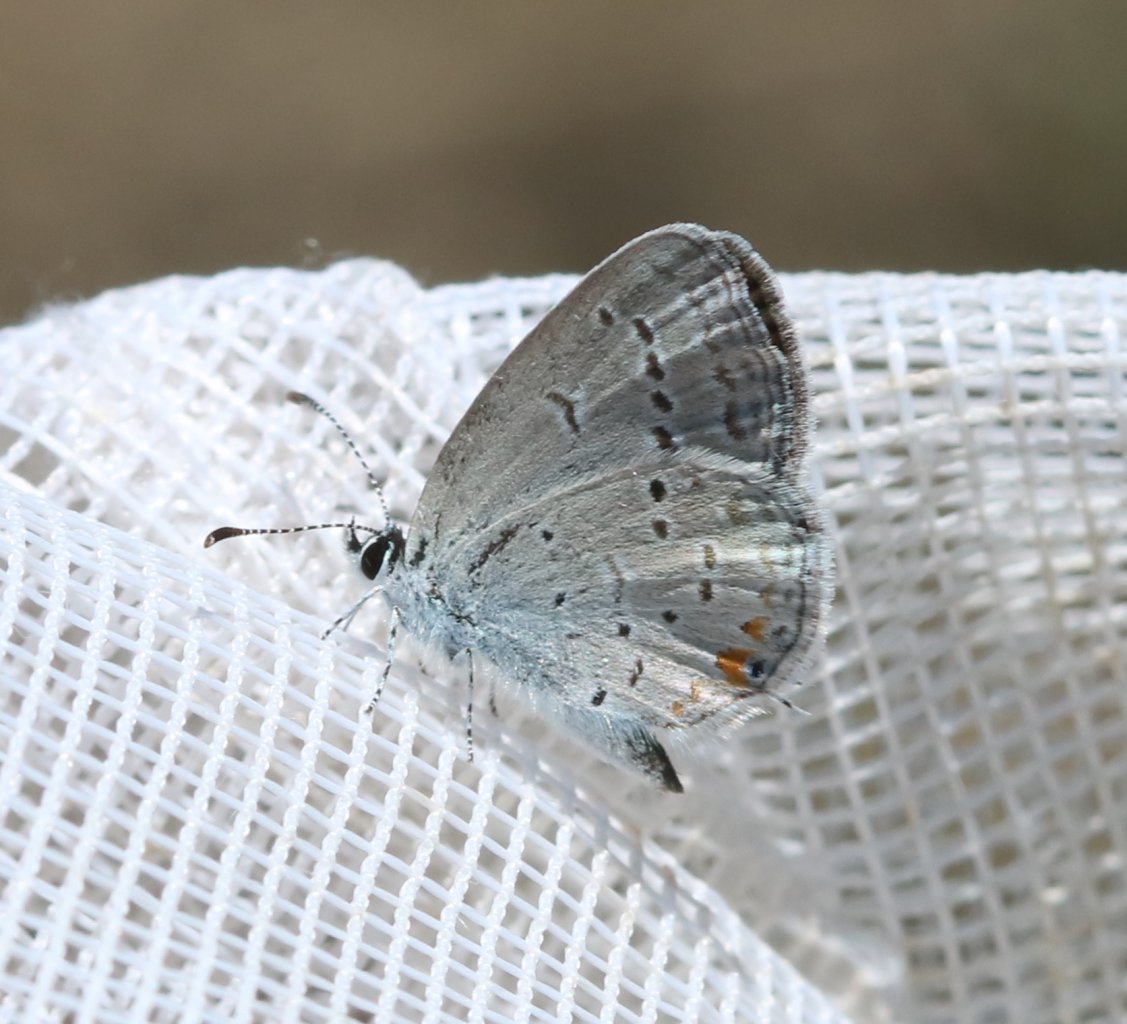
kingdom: Animalia
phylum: Arthropoda
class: Insecta
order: Lepidoptera
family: Lycaenidae
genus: Elkalyce
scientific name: Elkalyce comyntas
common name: Eastern Tailed-Blue
